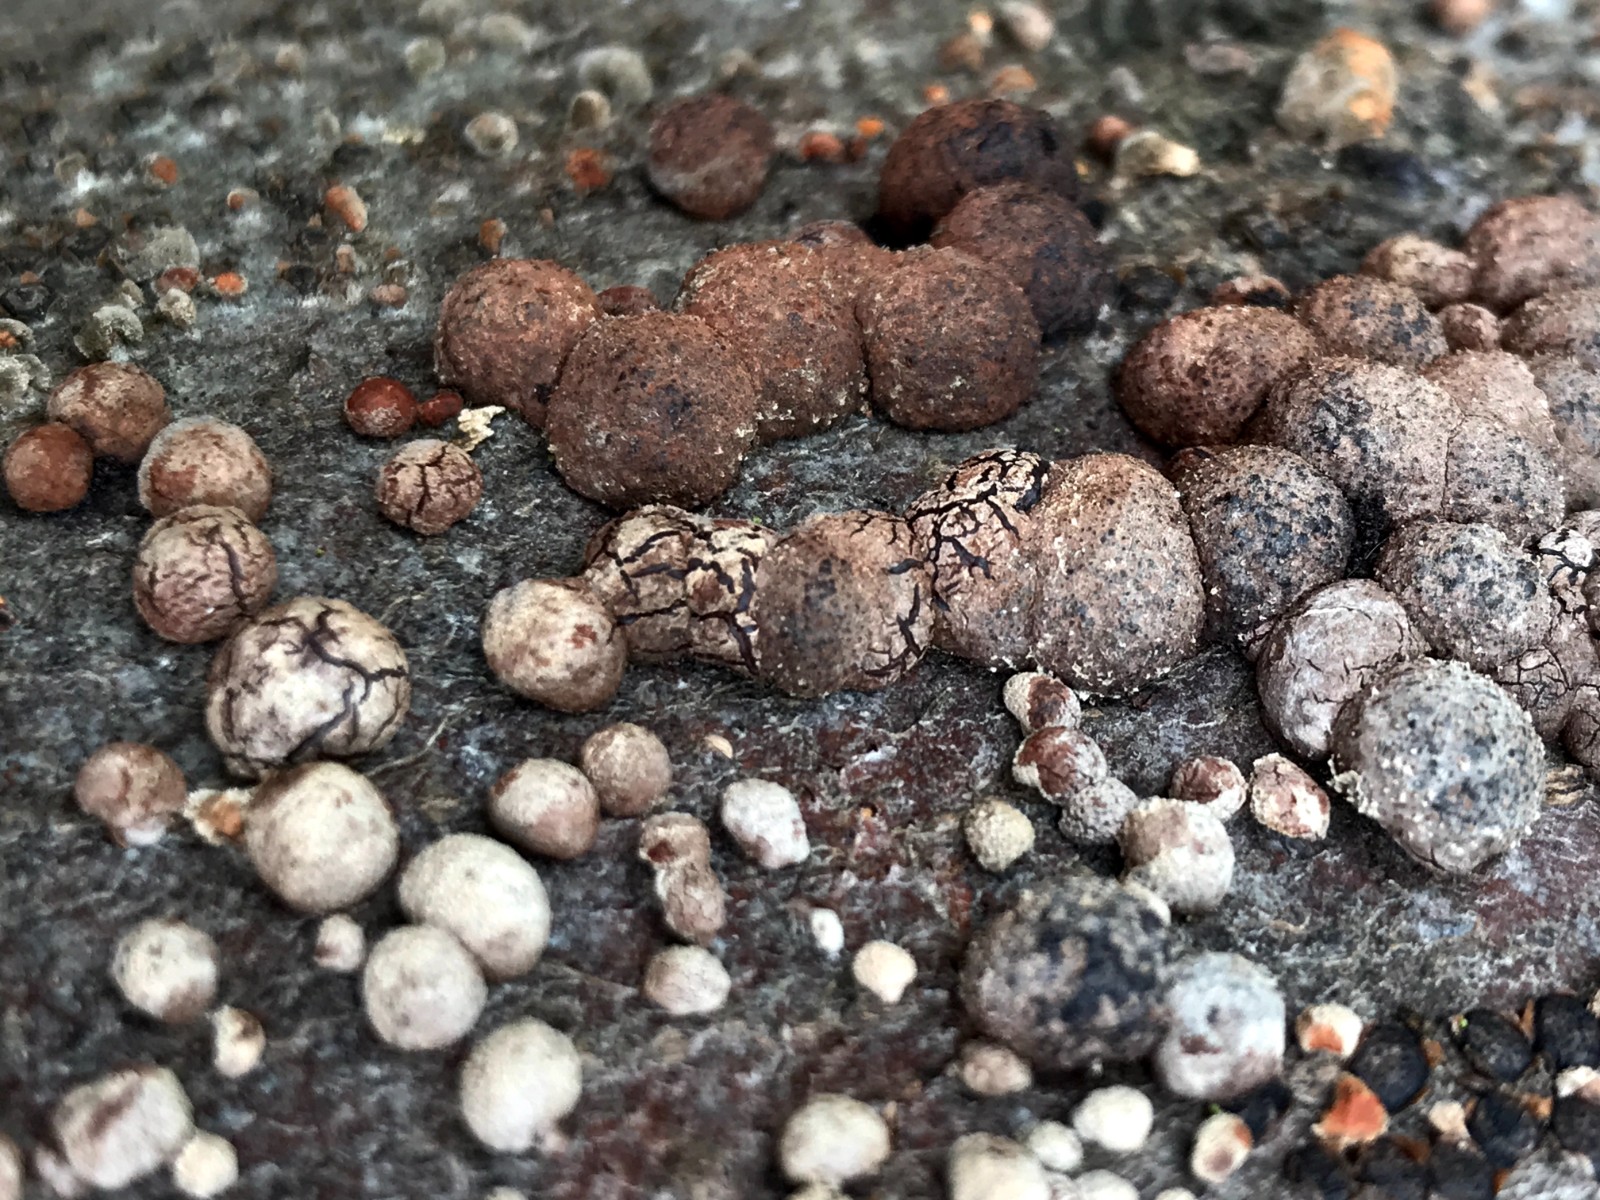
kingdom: Fungi
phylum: Ascomycota
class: Sordariomycetes
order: Xylariales
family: Hypoxylaceae
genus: Hypoxylon
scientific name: Hypoxylon fragiforme
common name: kuljordbær
